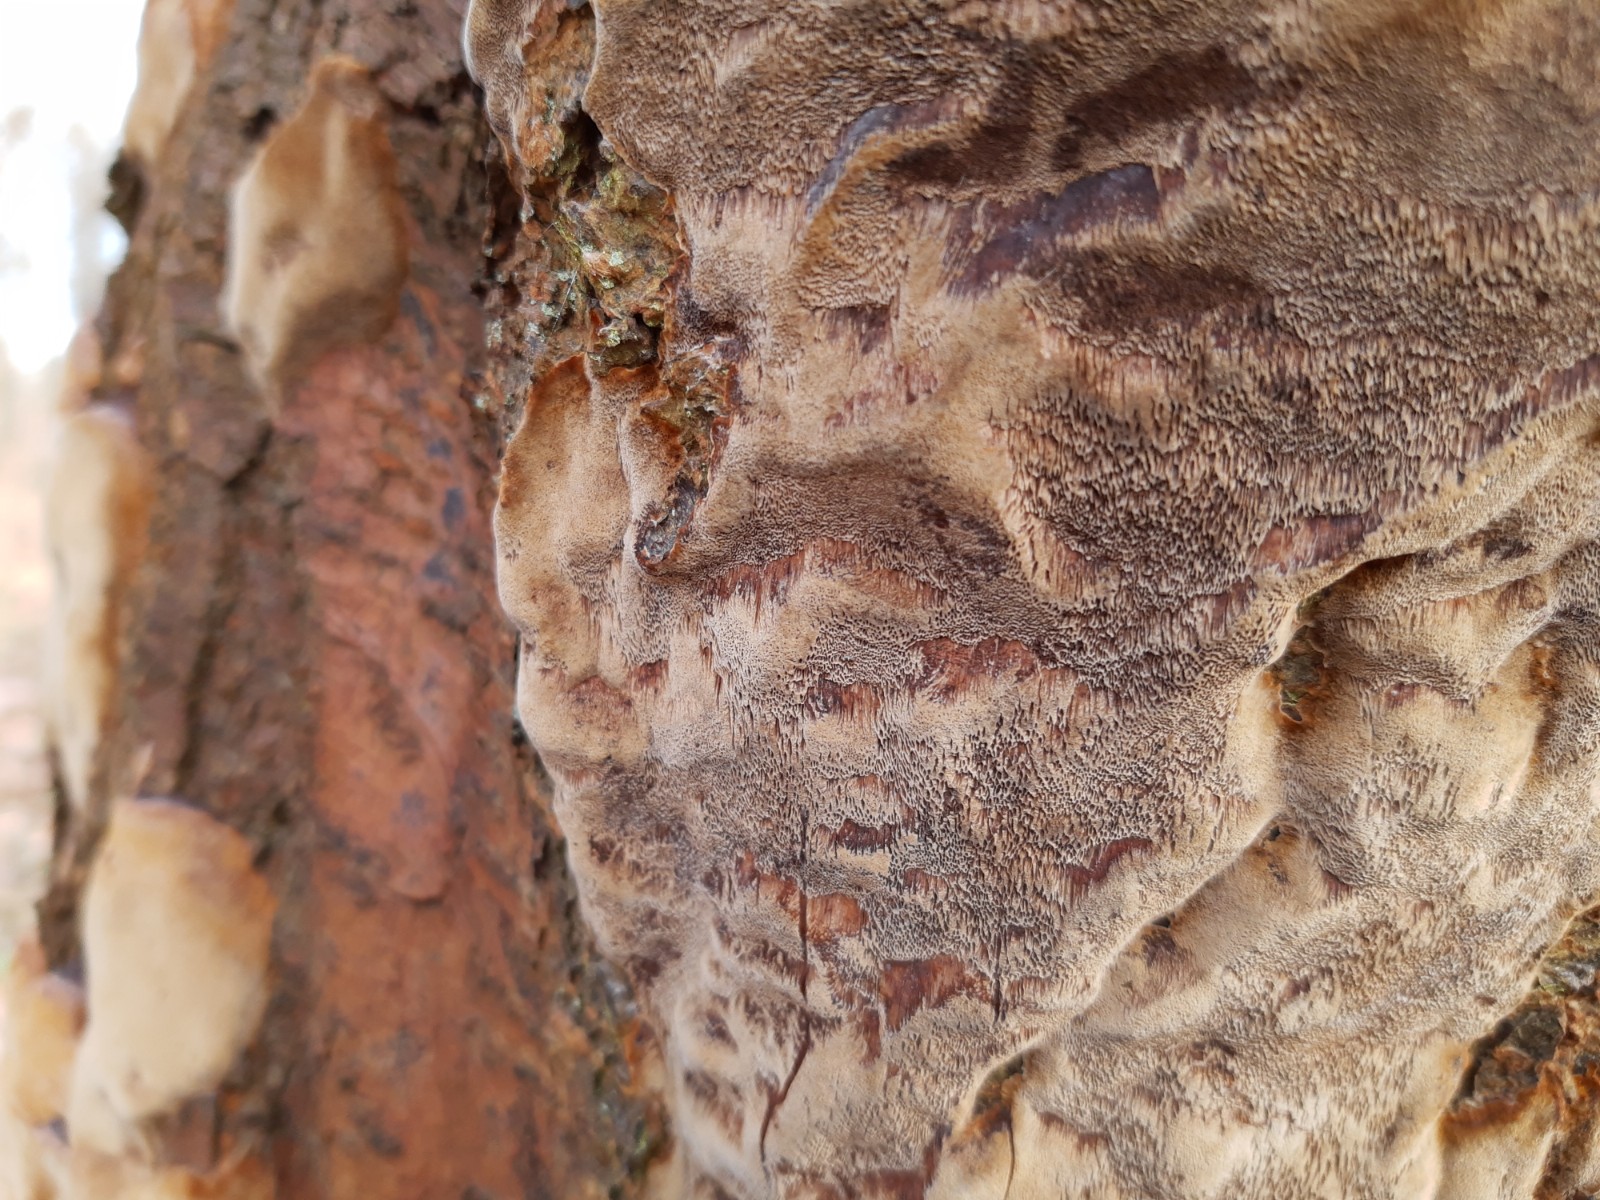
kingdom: Fungi
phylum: Basidiomycota
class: Agaricomycetes
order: Hymenochaetales
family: Hymenochaetaceae
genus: Phellinus
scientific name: Phellinus pomaceus
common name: blomme-ildporesvamp
